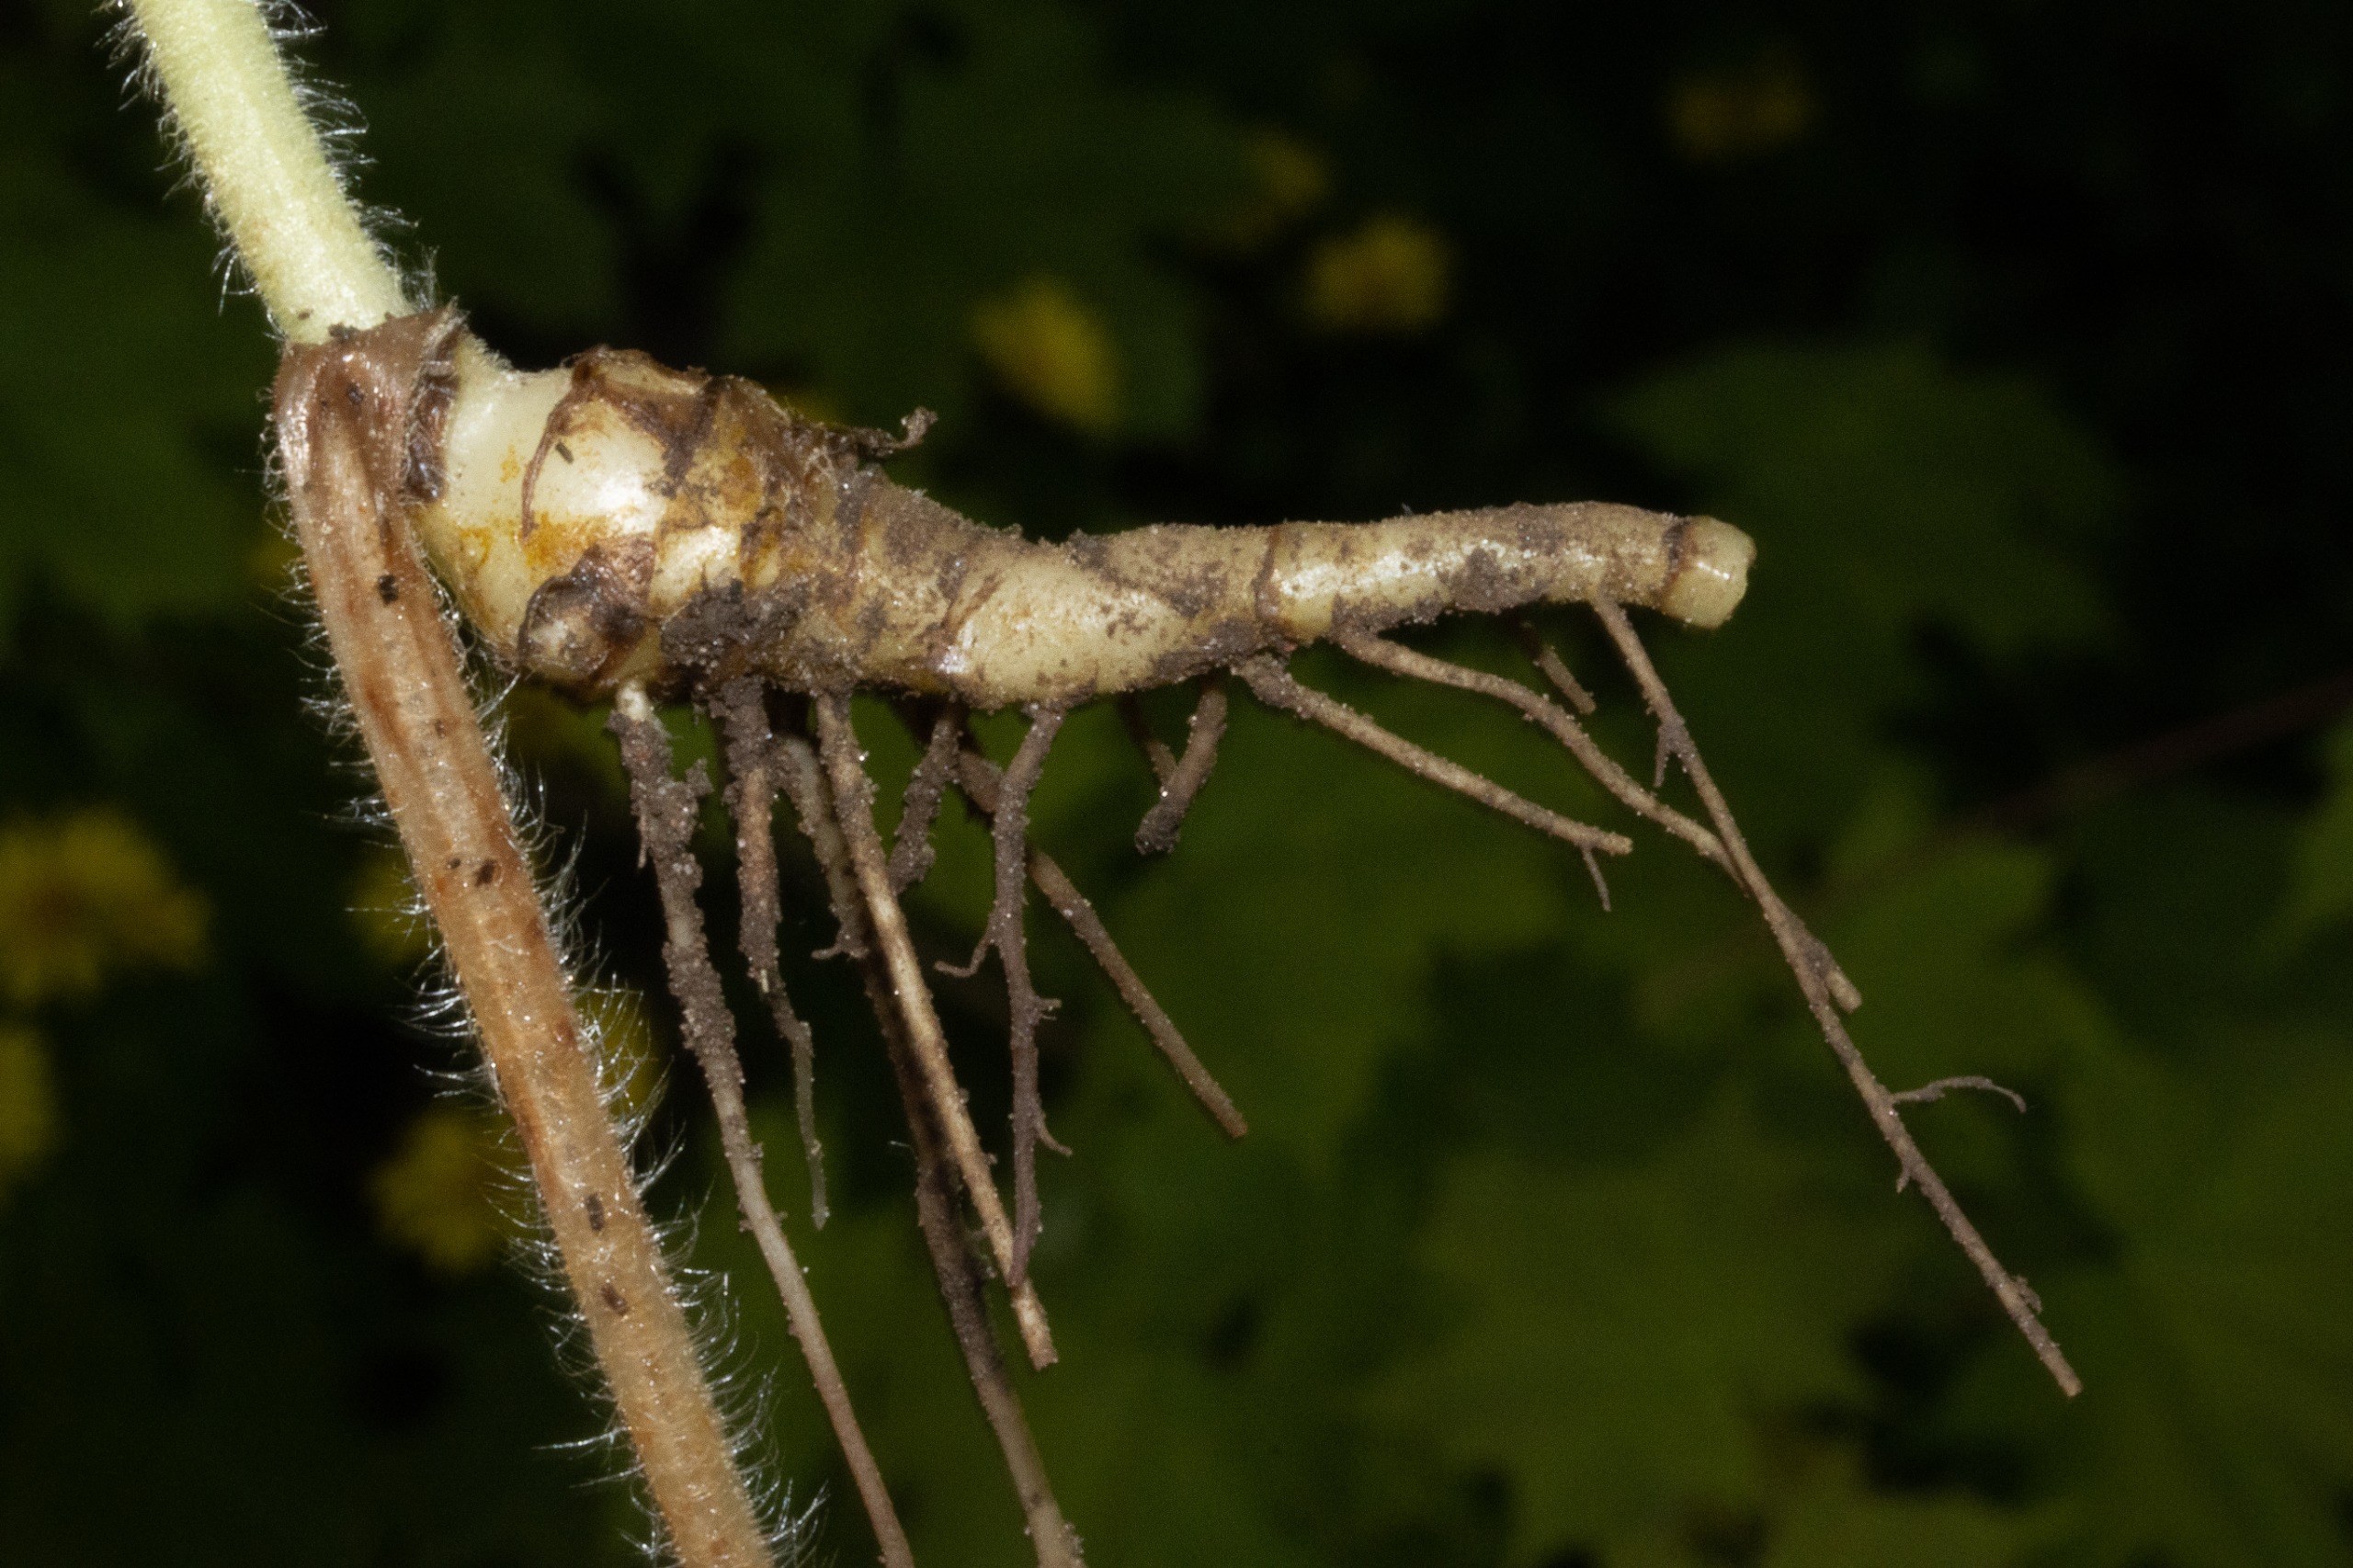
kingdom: Plantae
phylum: Tracheophyta
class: Magnoliopsida
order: Asterales
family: Asteraceae
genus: Doronicum
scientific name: Doronicum pardalianches
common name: Hjertebladet gemserod
